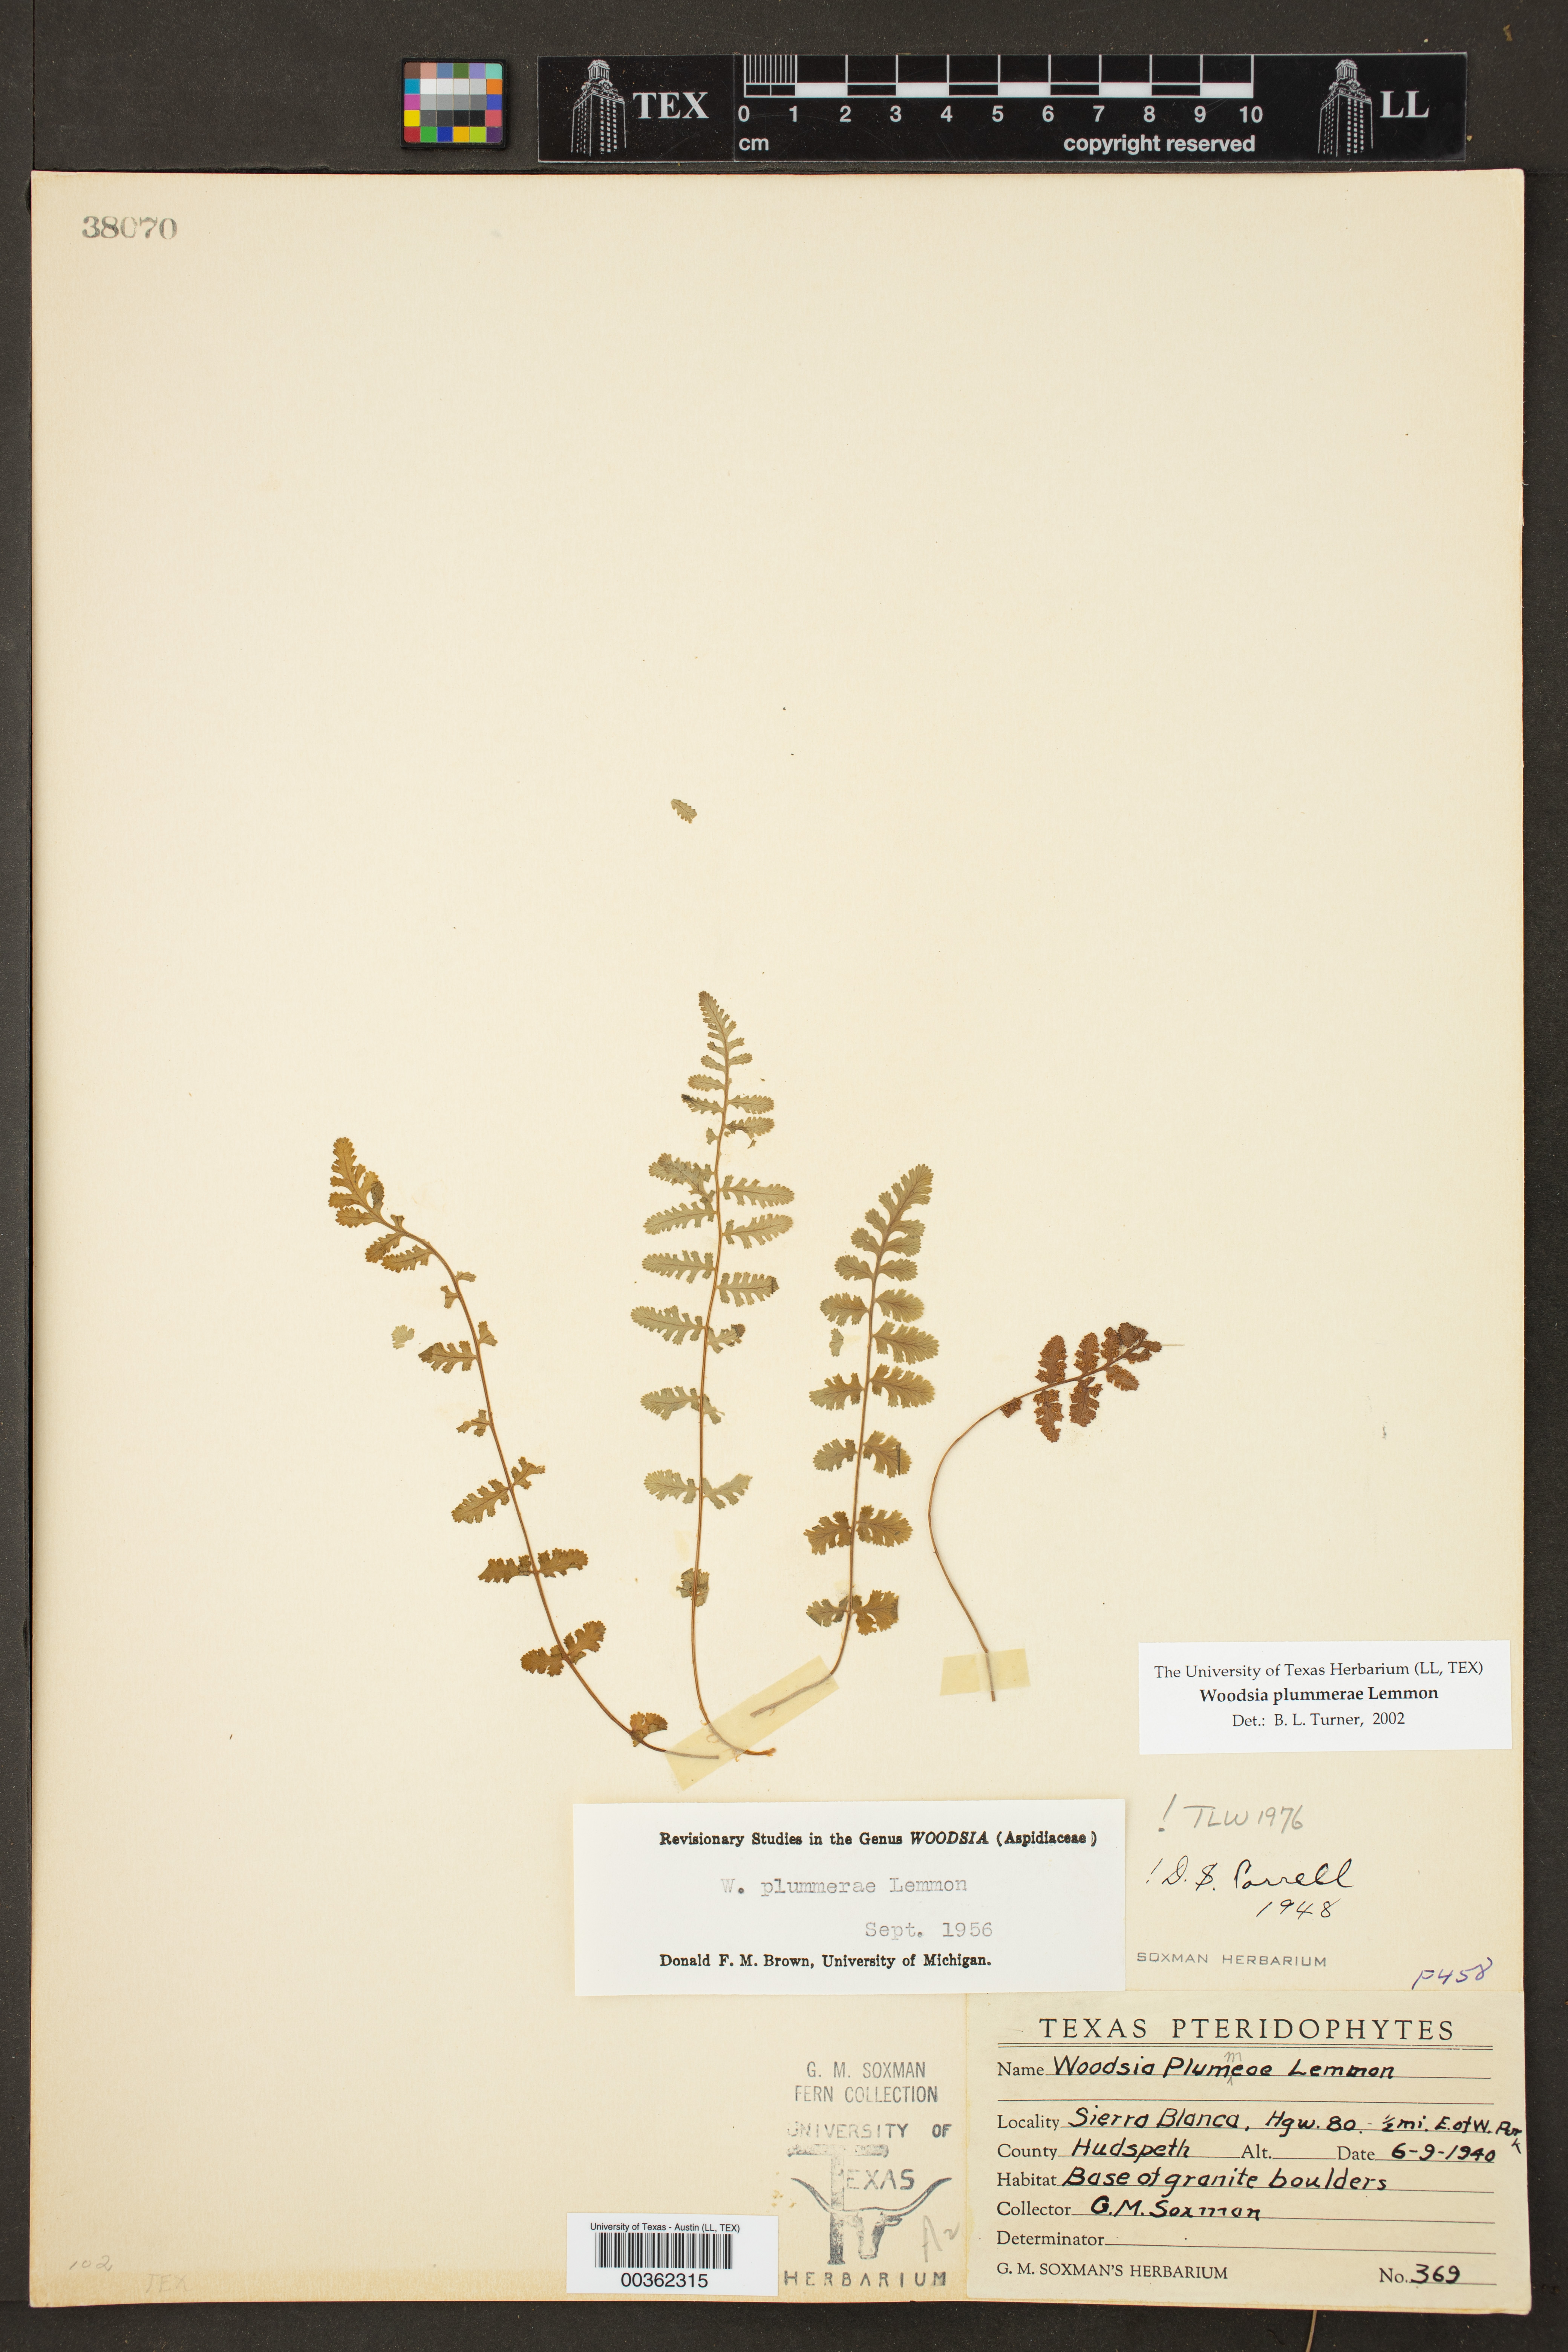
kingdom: Plantae
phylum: Tracheophyta
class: Polypodiopsida
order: Polypodiales
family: Woodsiaceae
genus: Physematium
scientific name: Physematium plummerae
